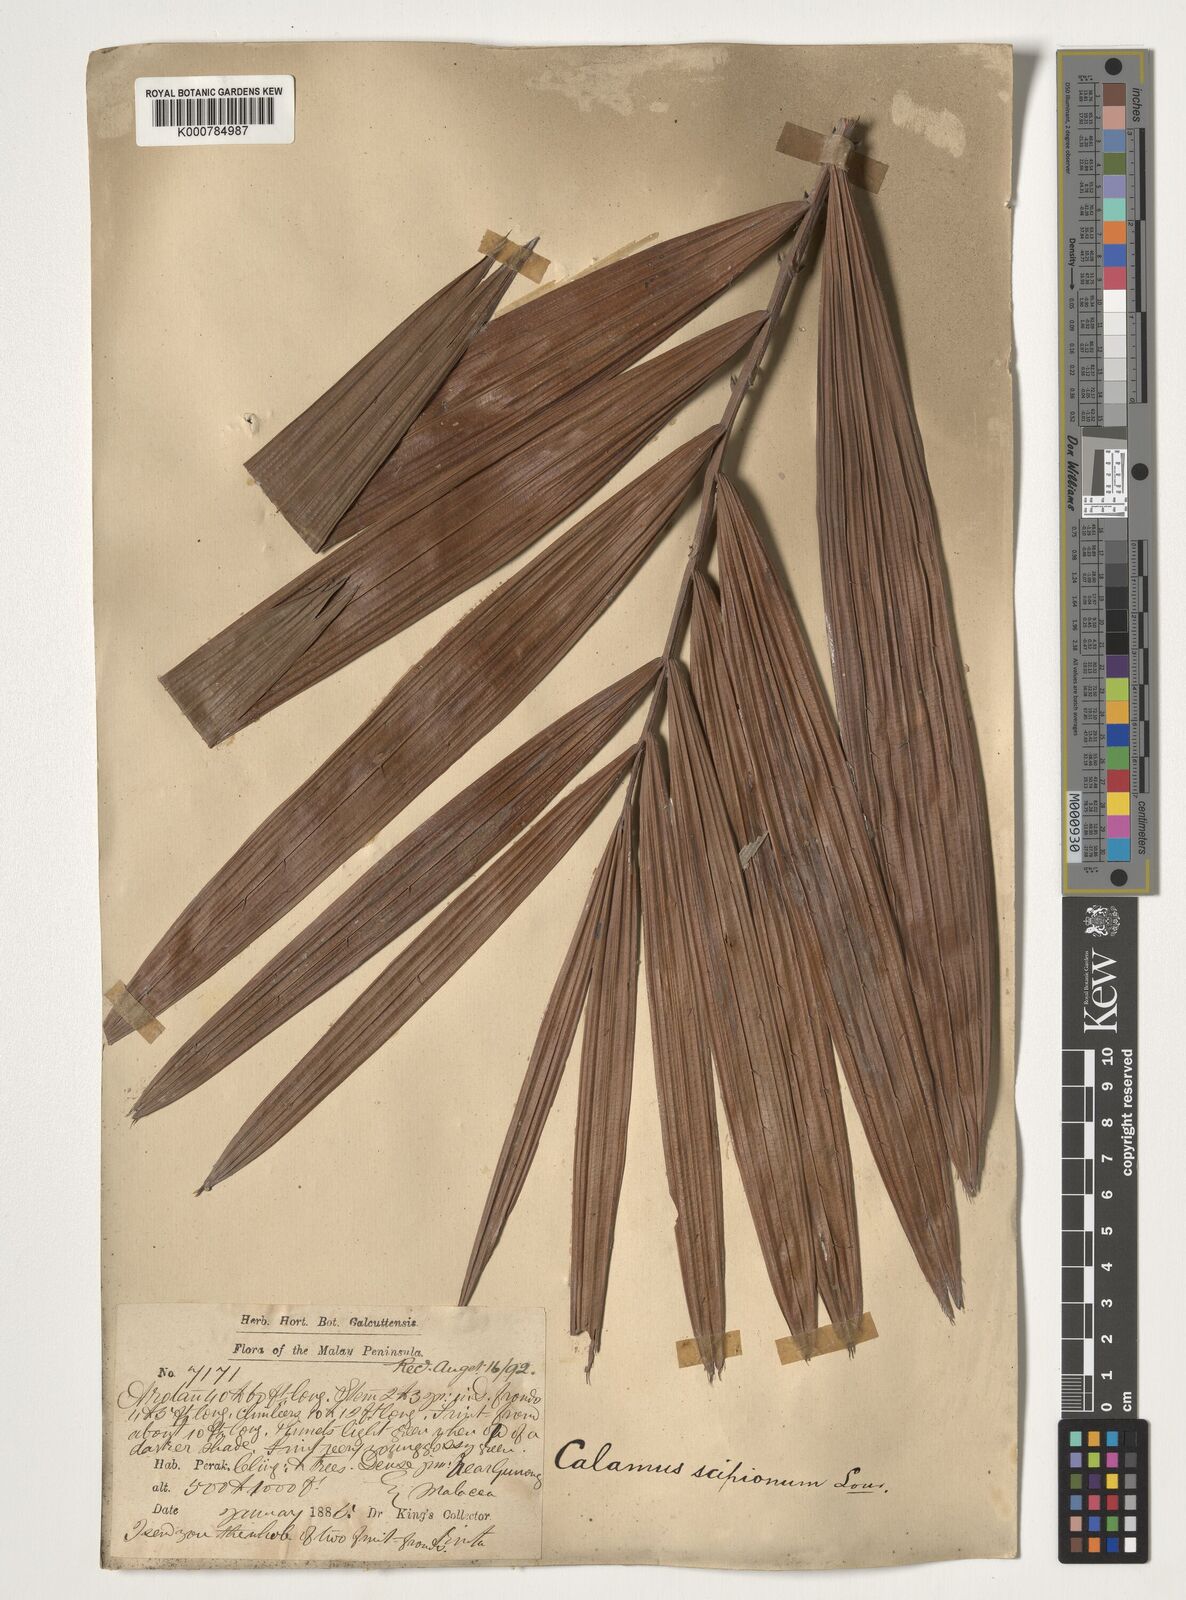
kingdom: Plantae
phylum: Tracheophyta
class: Liliopsida
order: Arecales
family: Arecaceae
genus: Calamus
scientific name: Calamus scipionum
